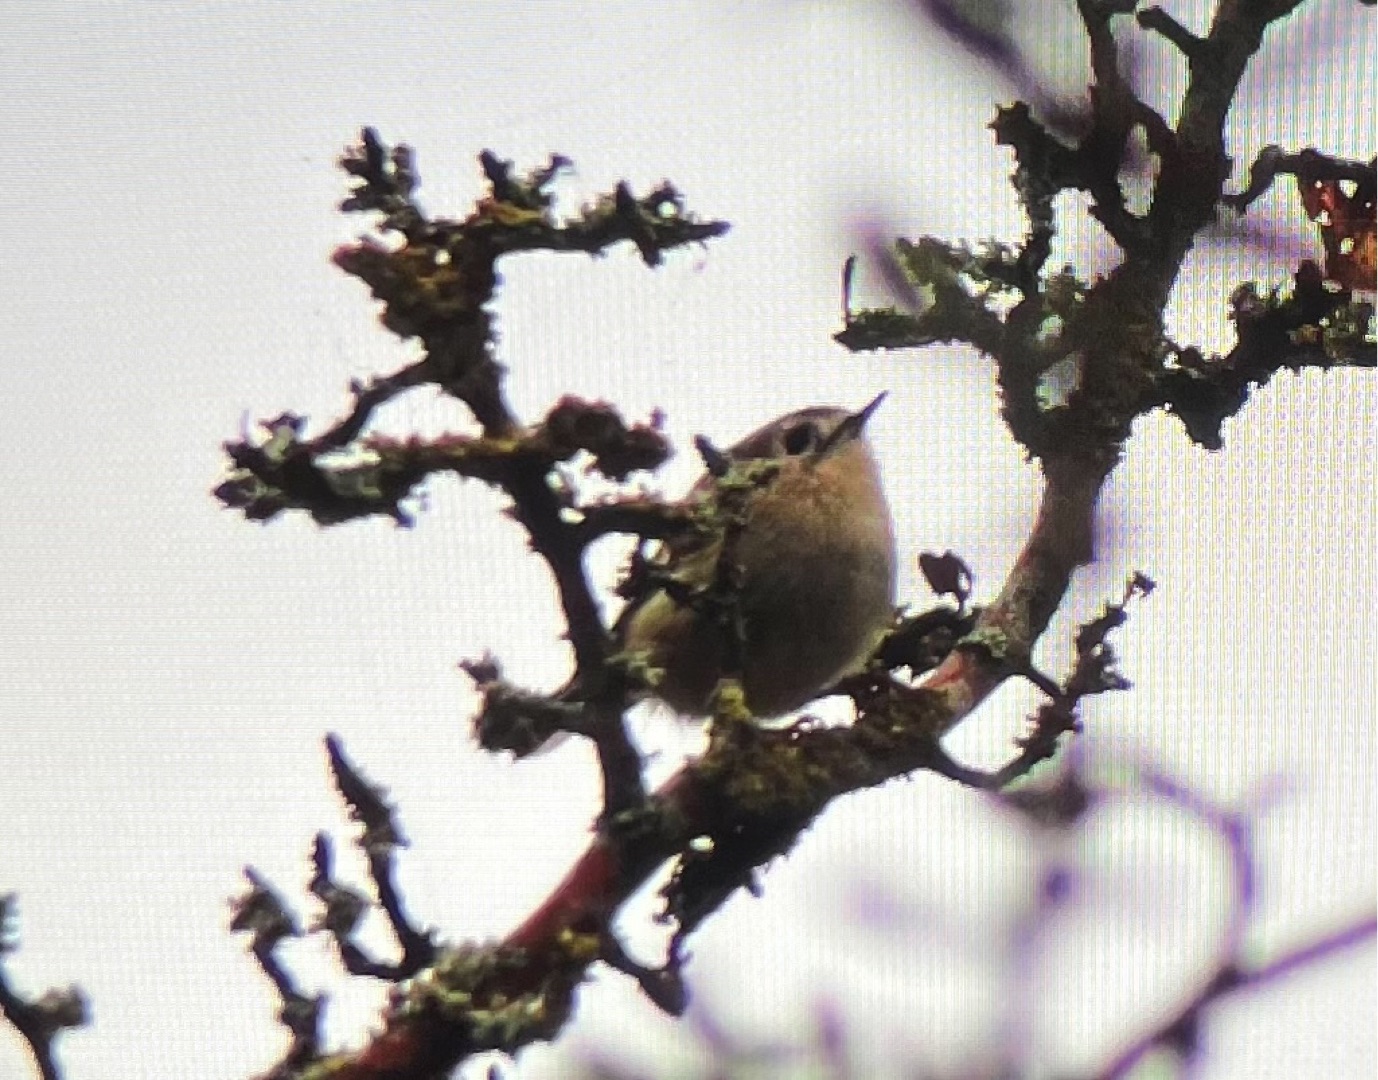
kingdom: Animalia
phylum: Chordata
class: Aves
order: Passeriformes
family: Regulidae
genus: Regulus
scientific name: Regulus regulus
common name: Fuglekonge
